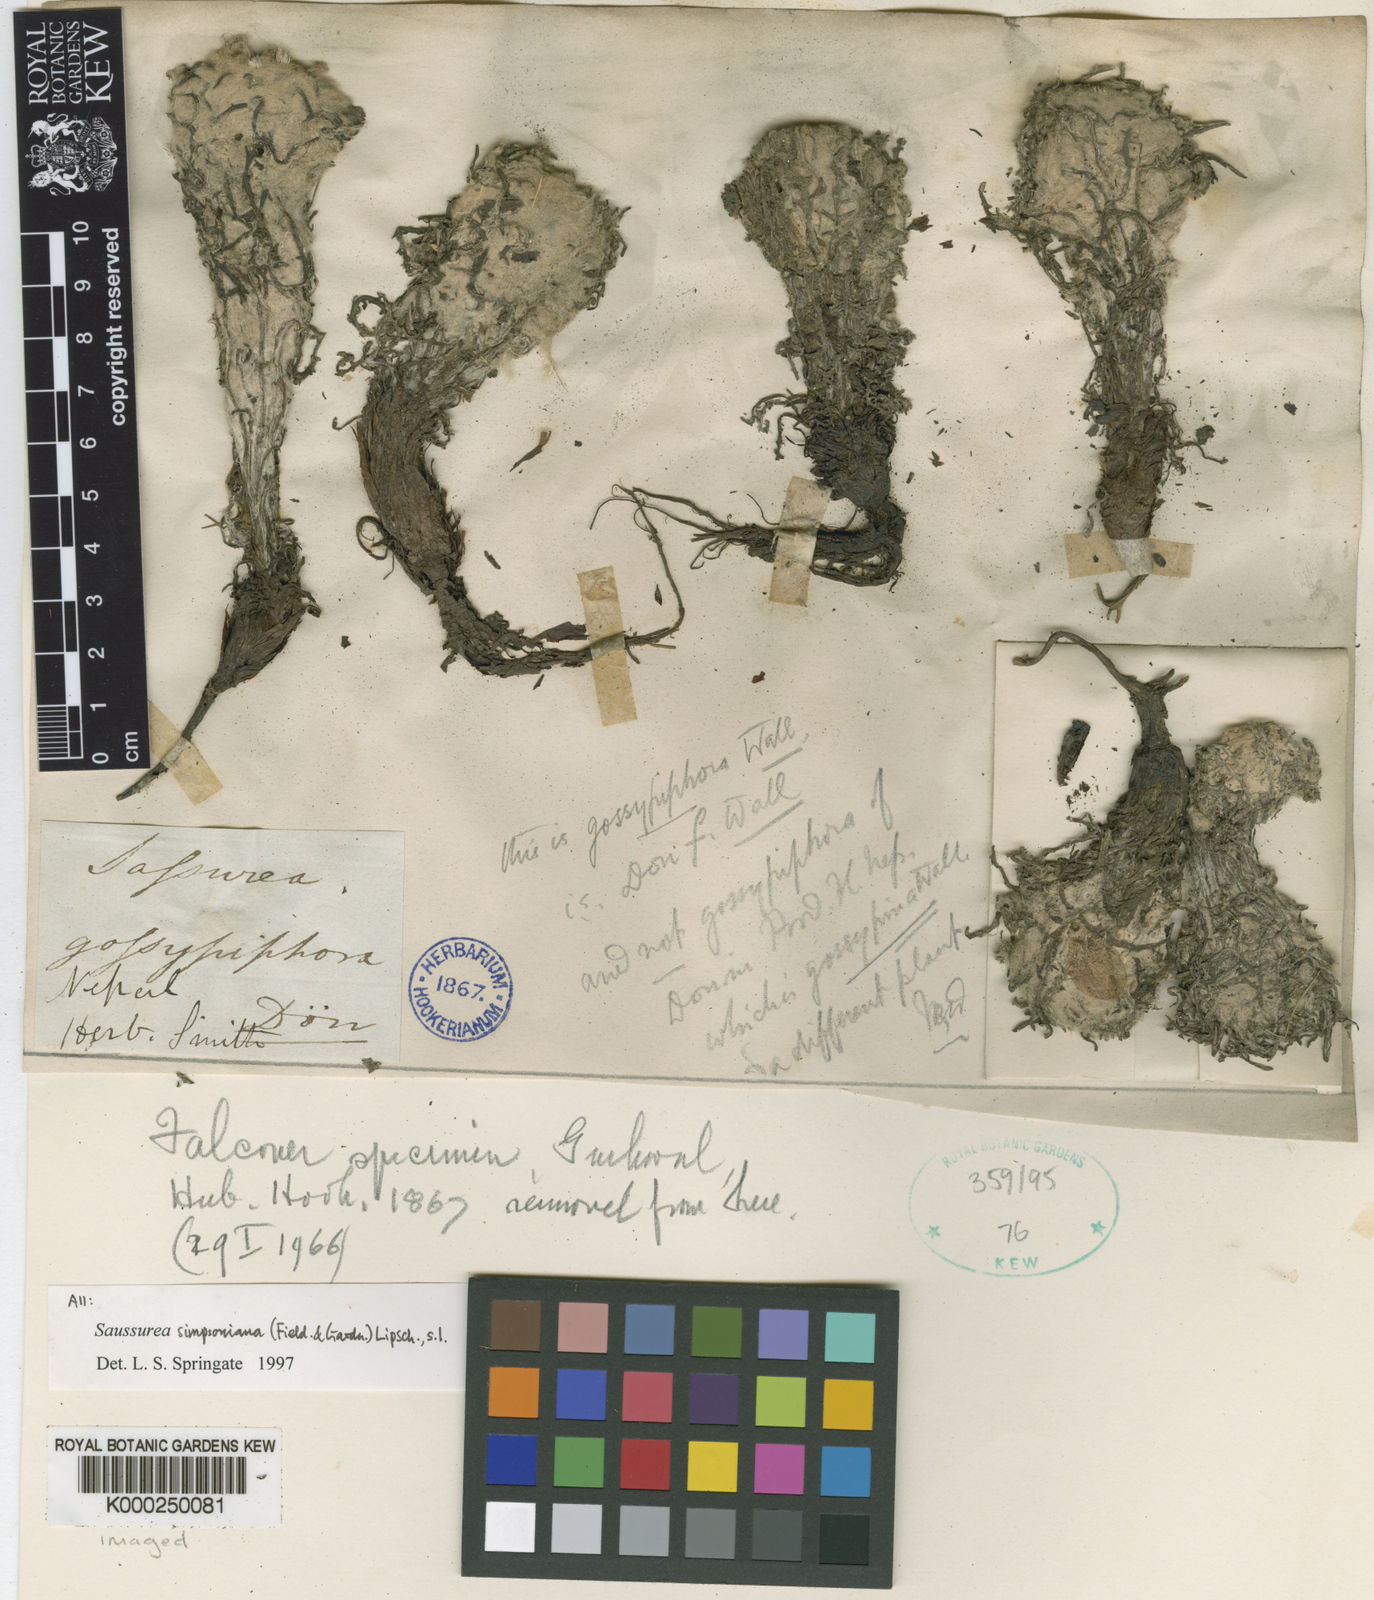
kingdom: Plantae
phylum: Tracheophyta
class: Magnoliopsida
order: Asterales
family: Asteraceae
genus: Saussurea
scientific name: Saussurea laniceps
